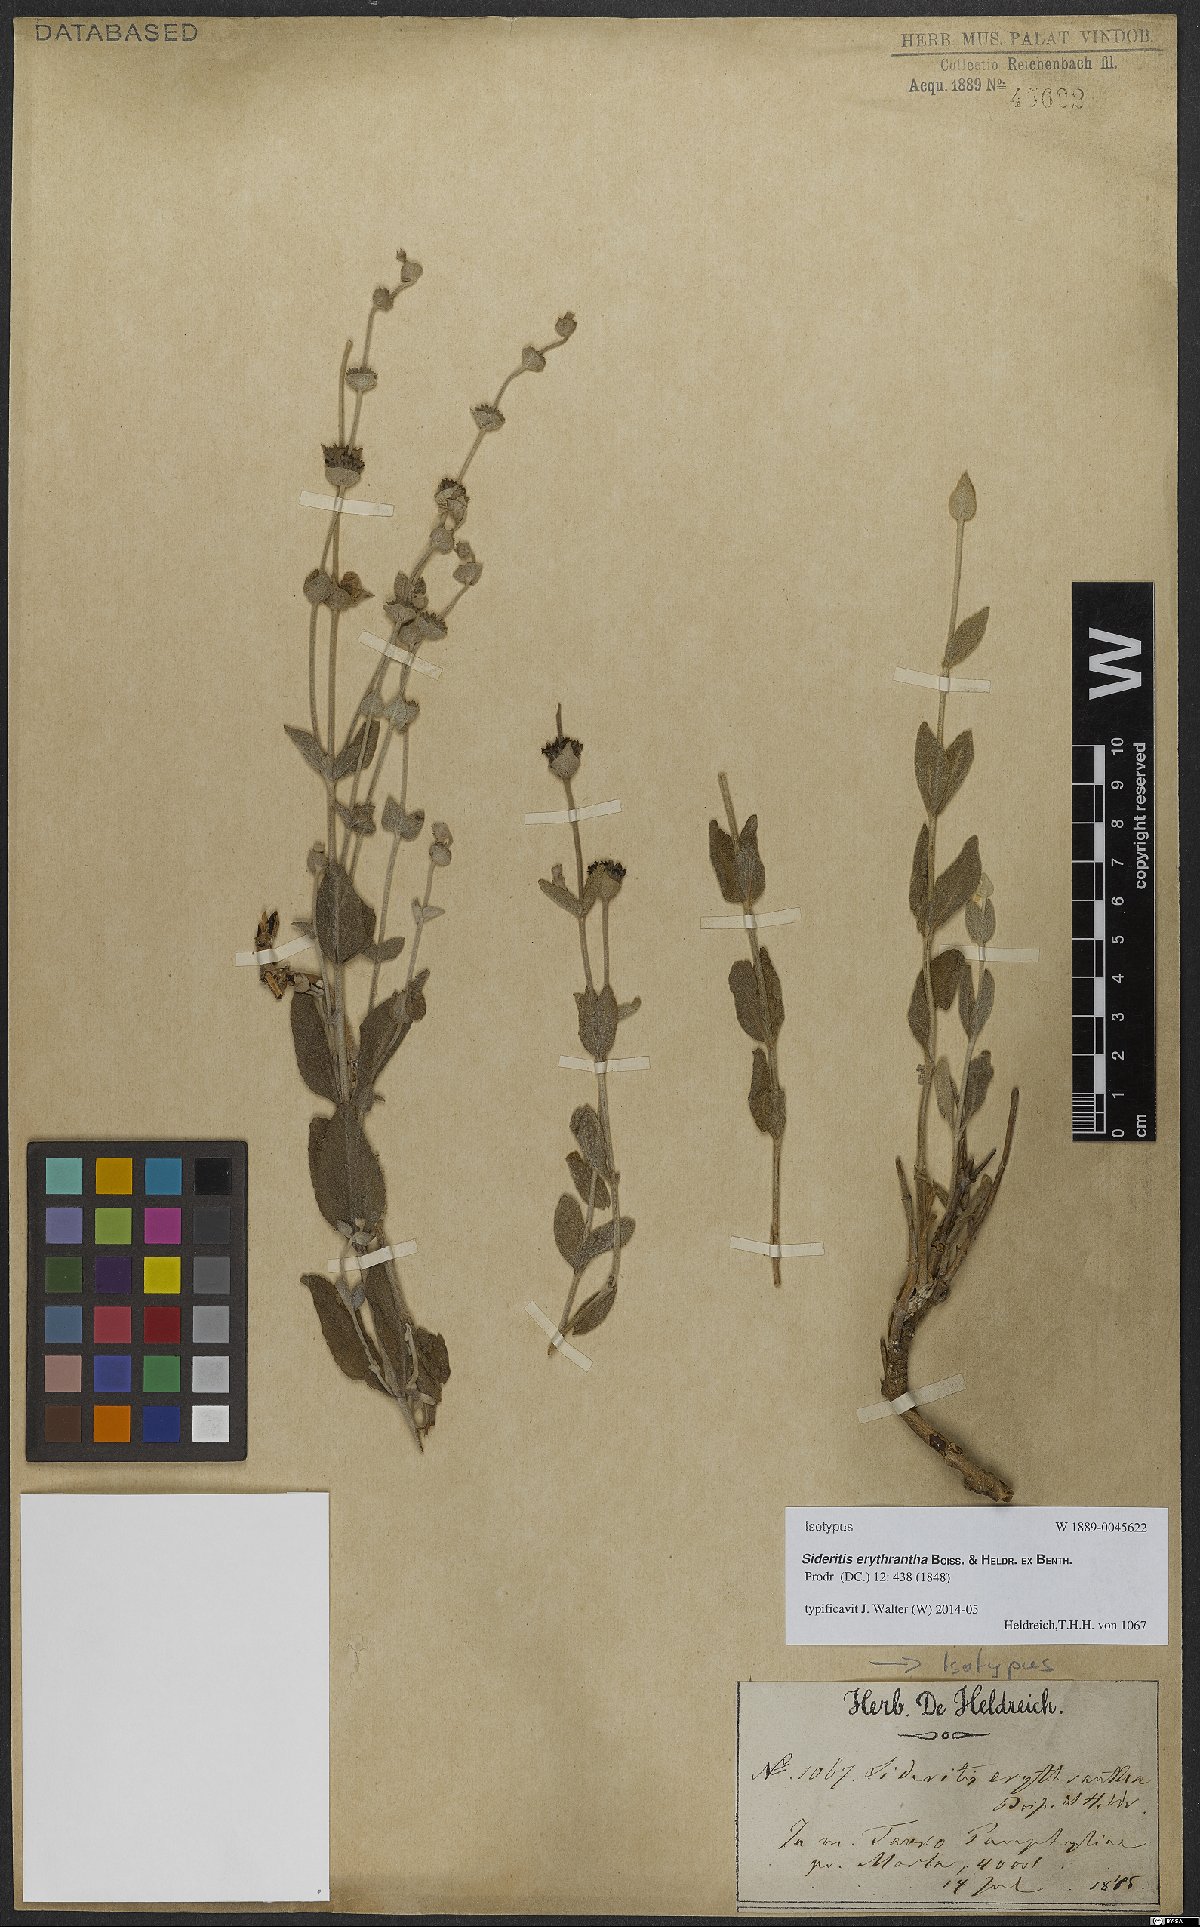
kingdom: Plantae
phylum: Tracheophyta
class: Magnoliopsida
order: Lamiales
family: Lamiaceae
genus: Sideritis
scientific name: Sideritis erythrantha
